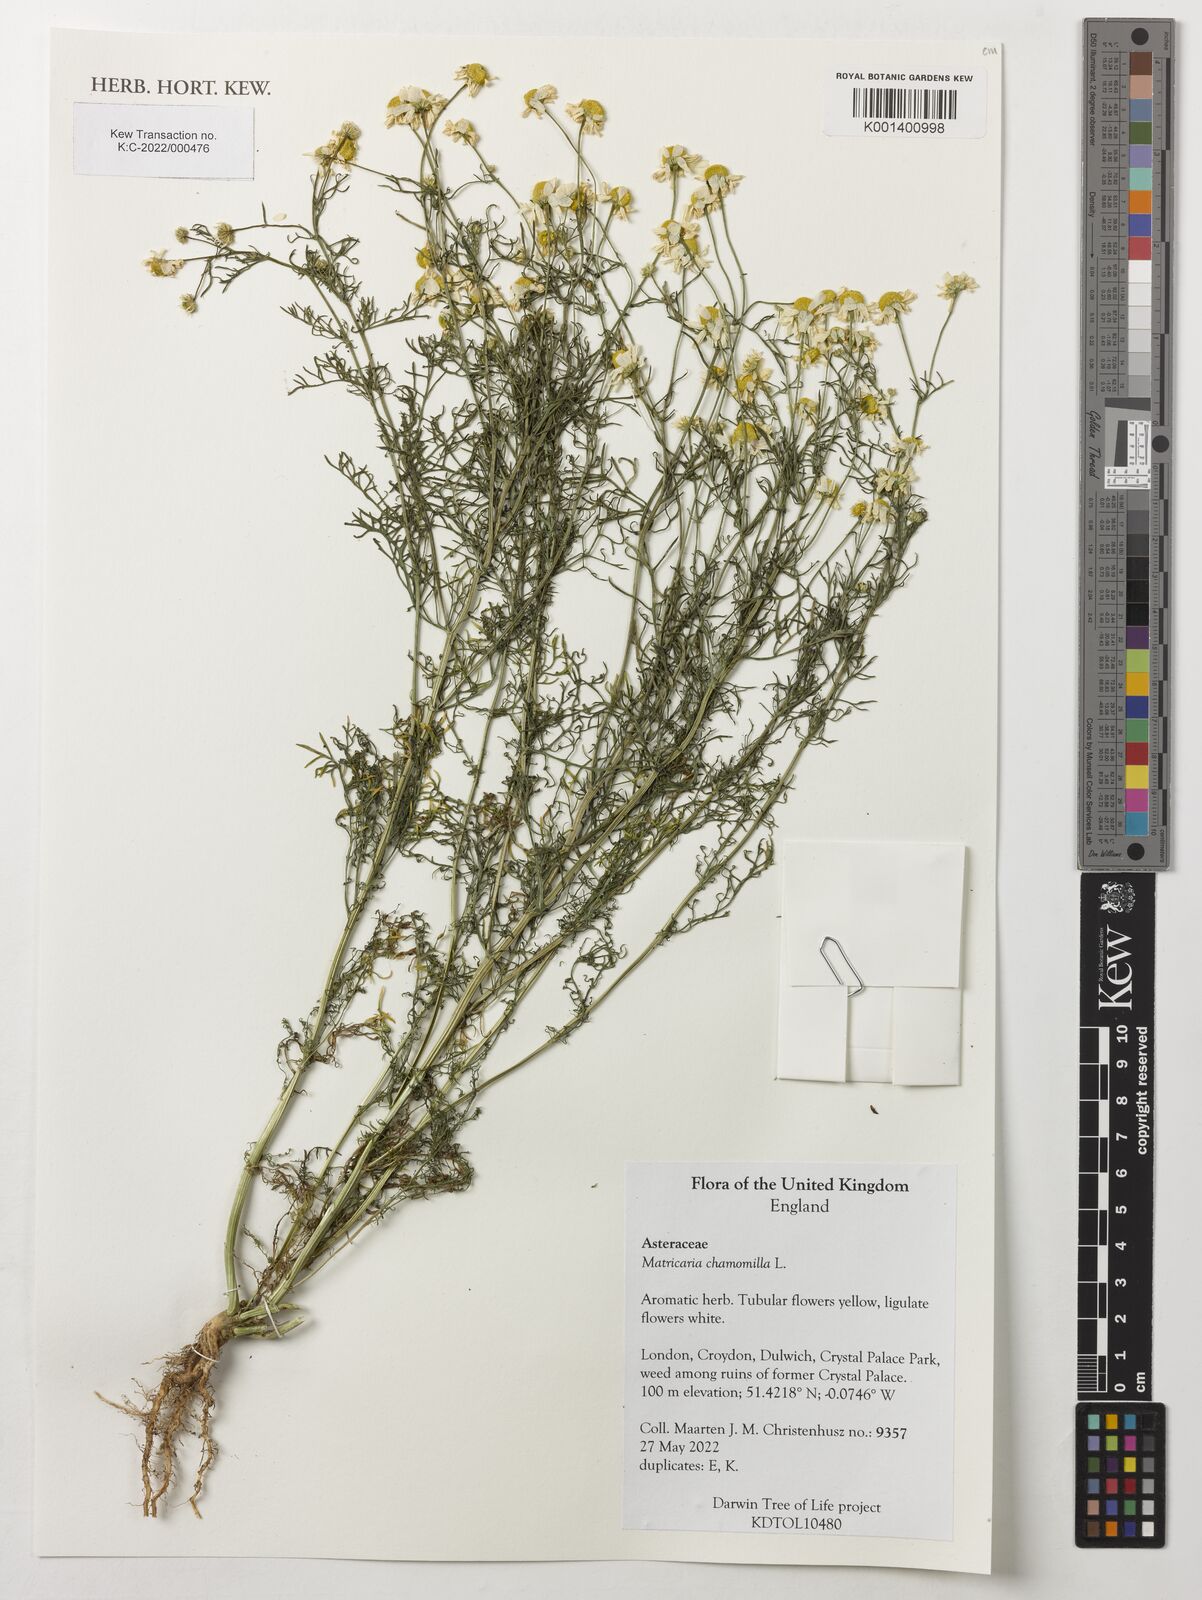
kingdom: Plantae
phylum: Tracheophyta
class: Magnoliopsida
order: Asterales
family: Asteraceae
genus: Matricaria
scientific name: Matricaria chamomilla
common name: Scented mayweed
